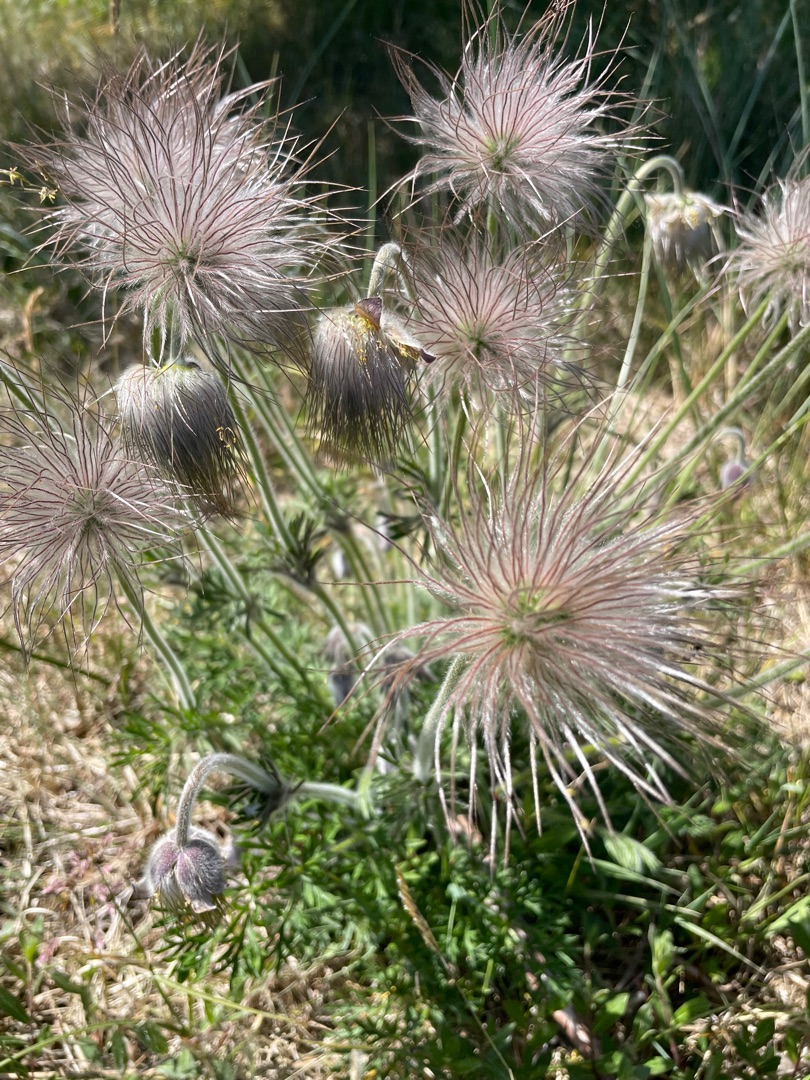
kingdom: Plantae
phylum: Tracheophyta
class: Magnoliopsida
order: Ranunculales
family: Ranunculaceae
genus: Pulsatilla
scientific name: Pulsatilla pratensis
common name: Nikkende kobjælde
